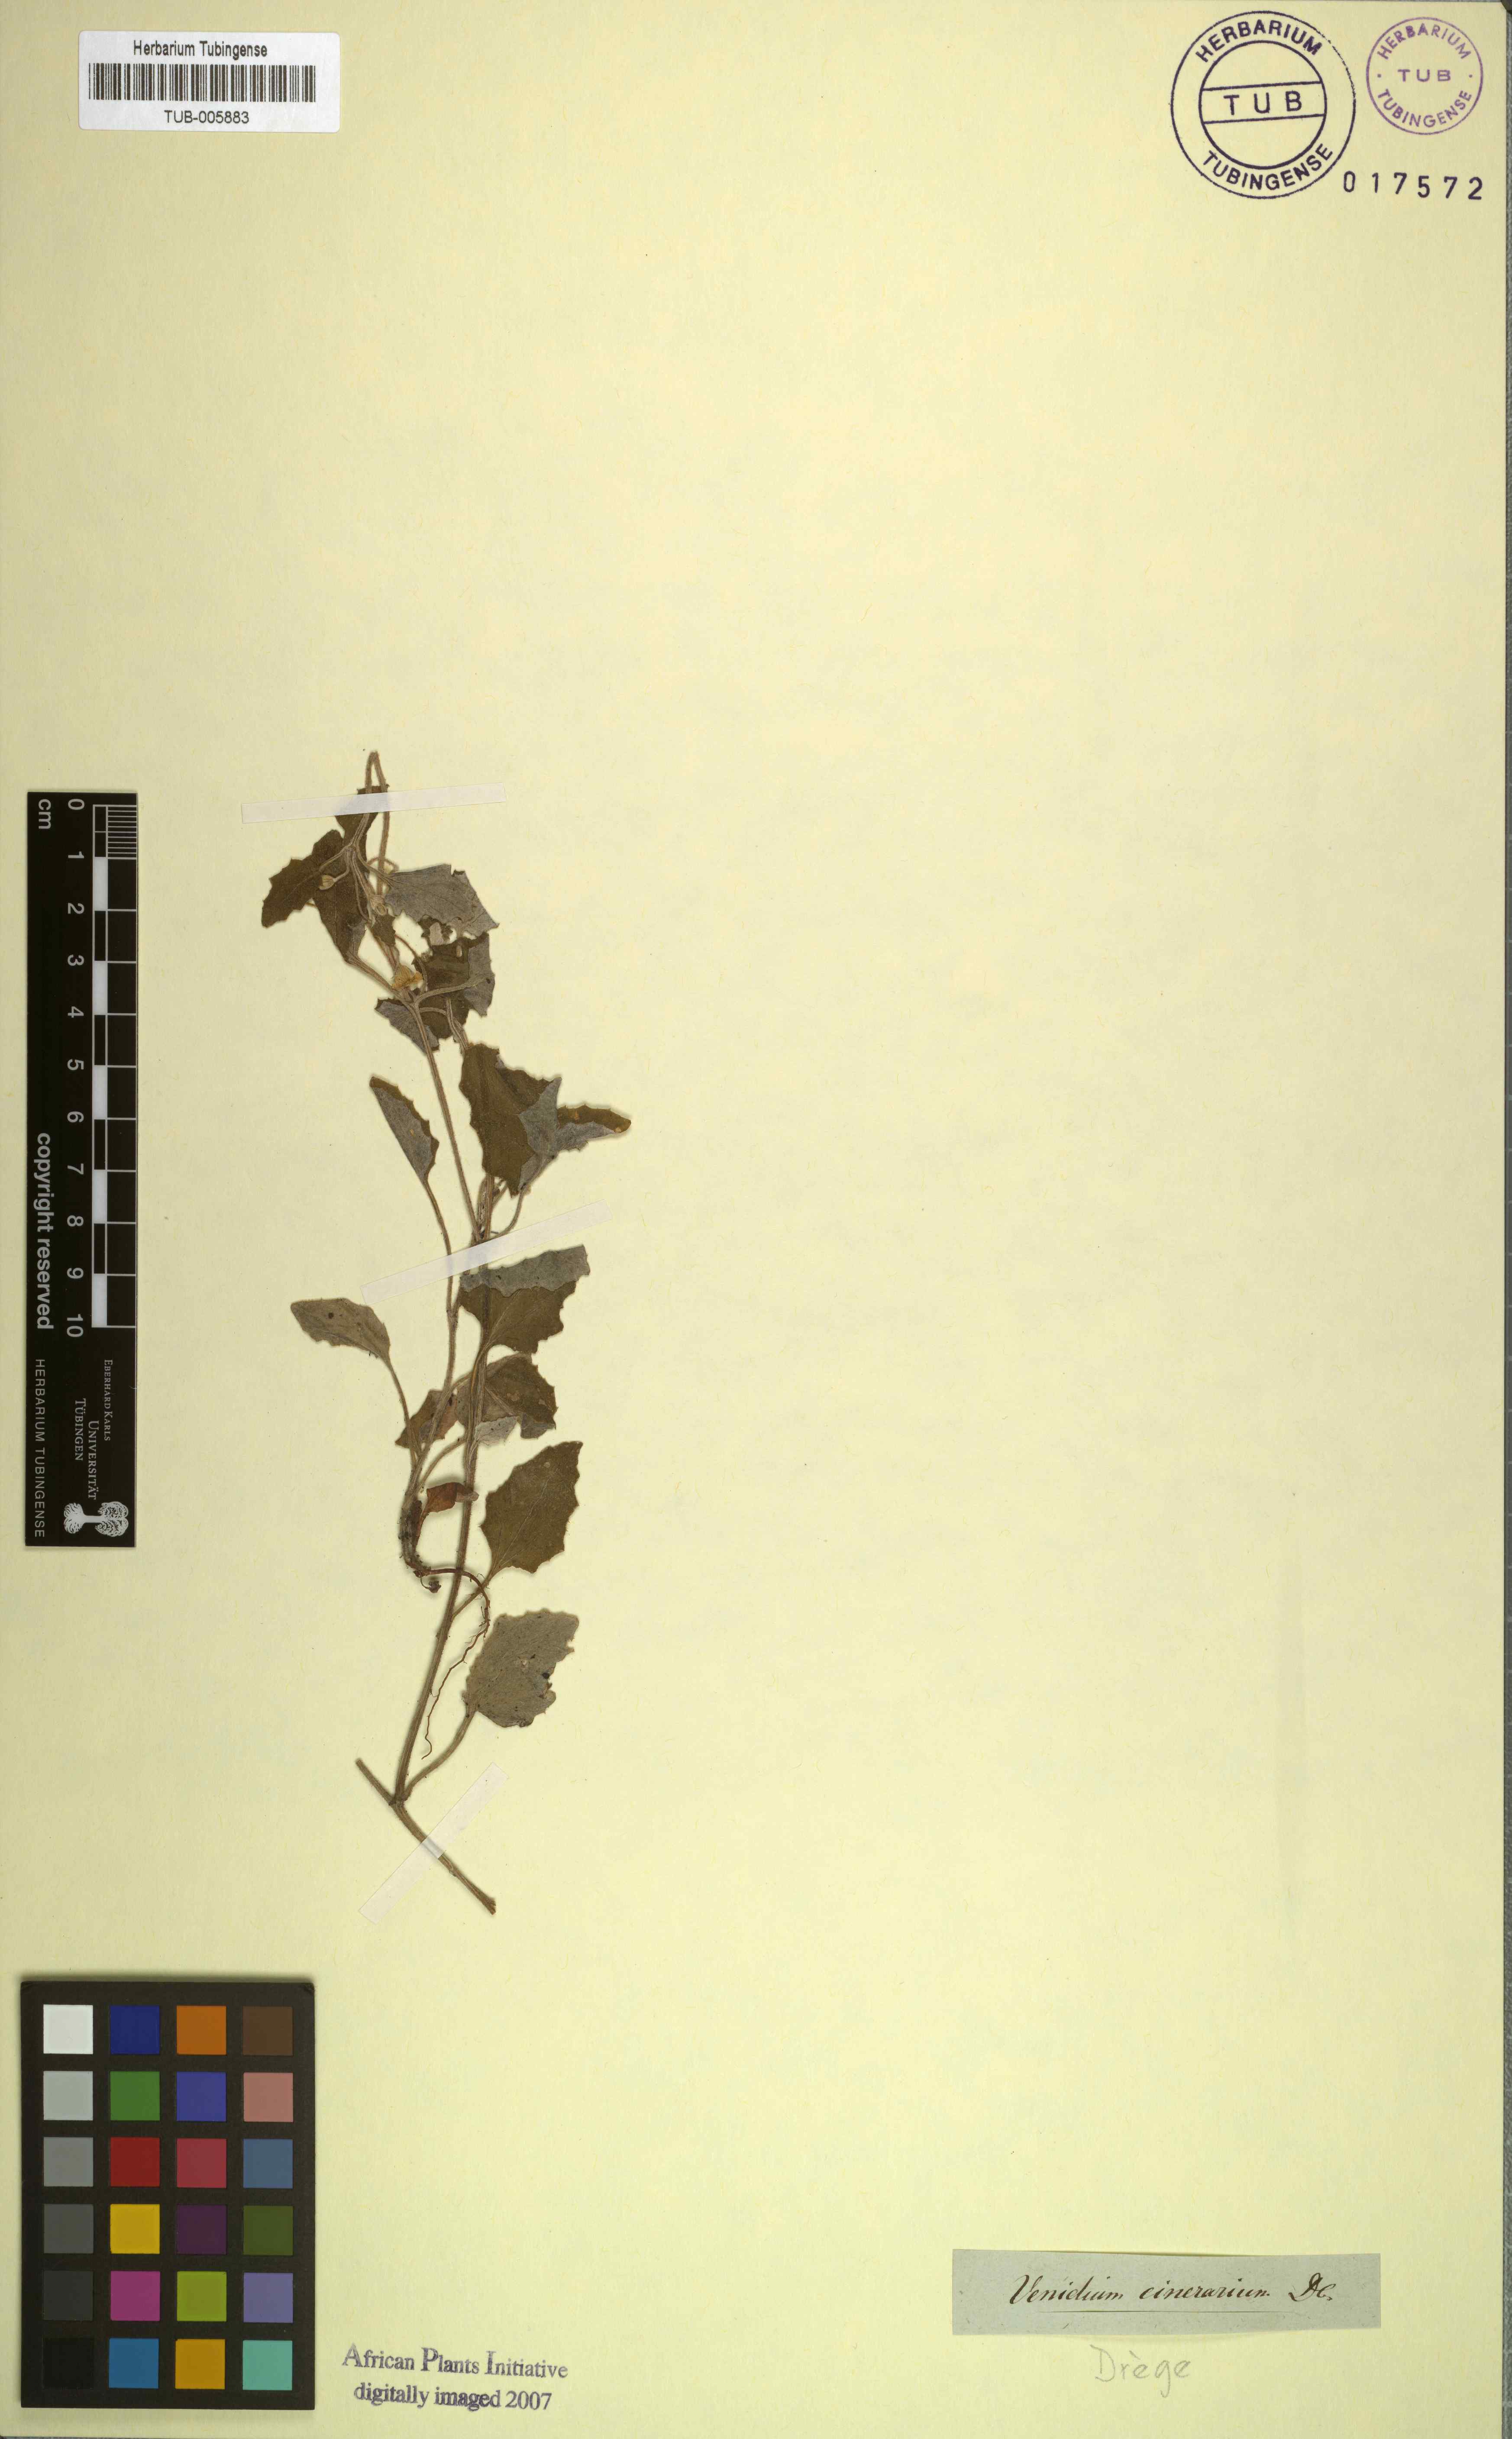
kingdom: Plantae
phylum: Tracheophyta
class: Magnoliopsida
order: Asterales
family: Asteraceae
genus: Arctotis
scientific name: Arctotis perfoliata
